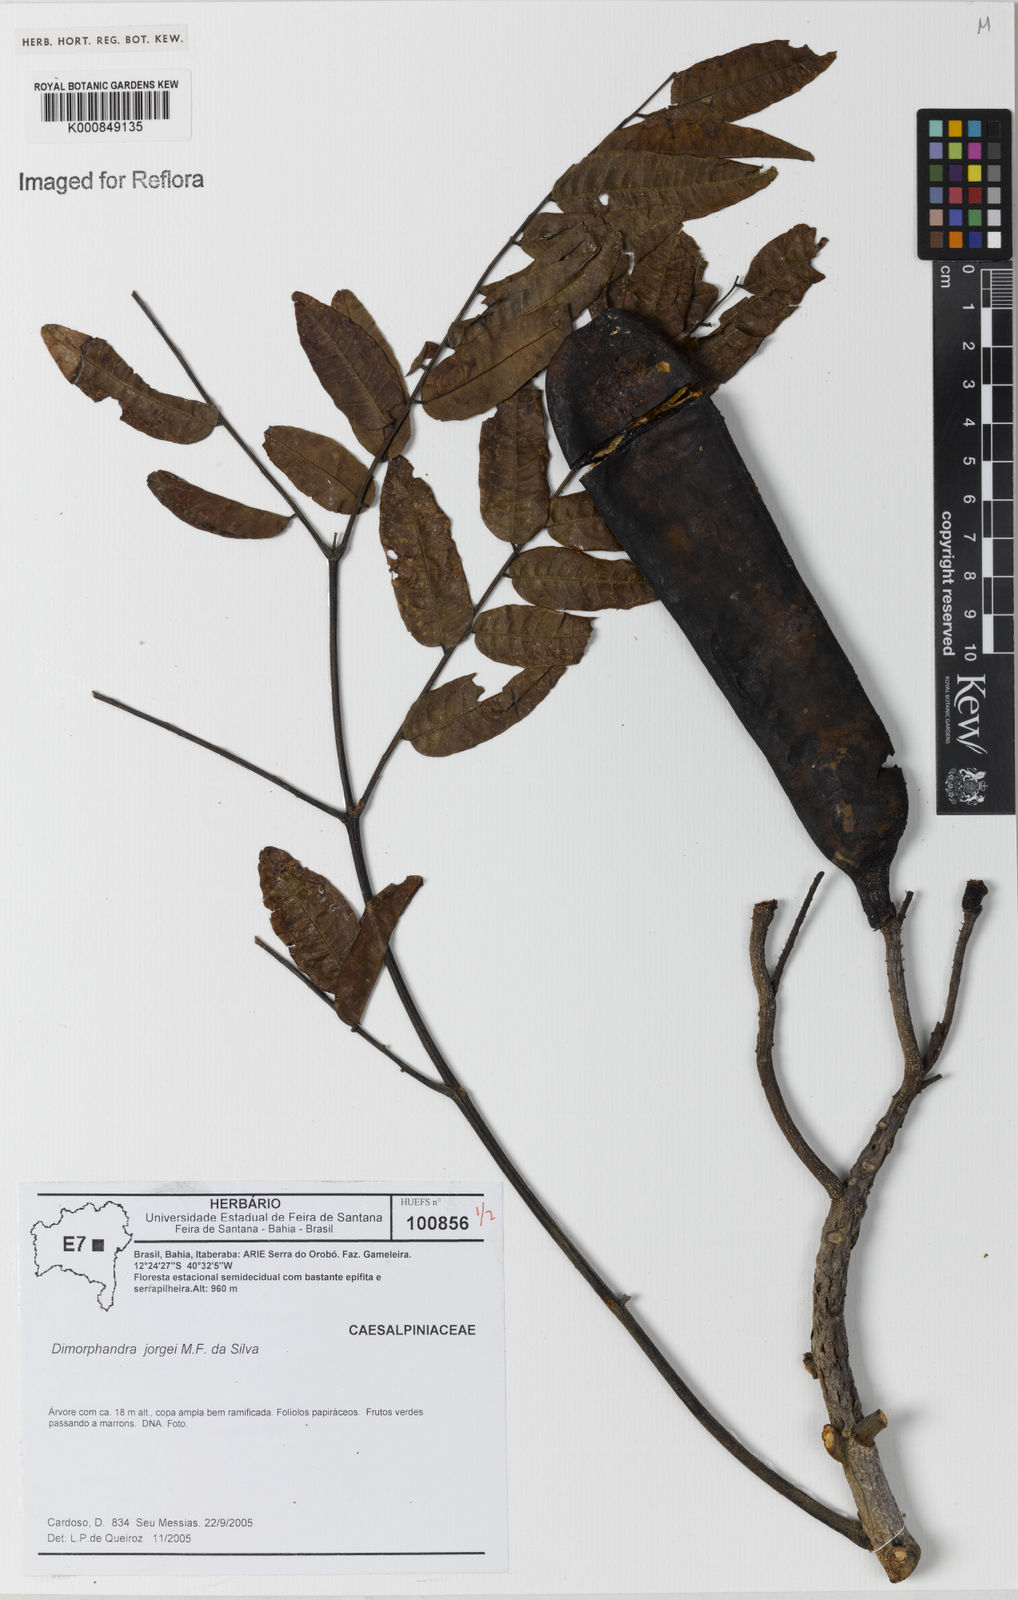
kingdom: Plantae
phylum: Tracheophyta
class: Magnoliopsida
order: Fabales
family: Fabaceae
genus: Dimorphandra
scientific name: Dimorphandra jorgei
